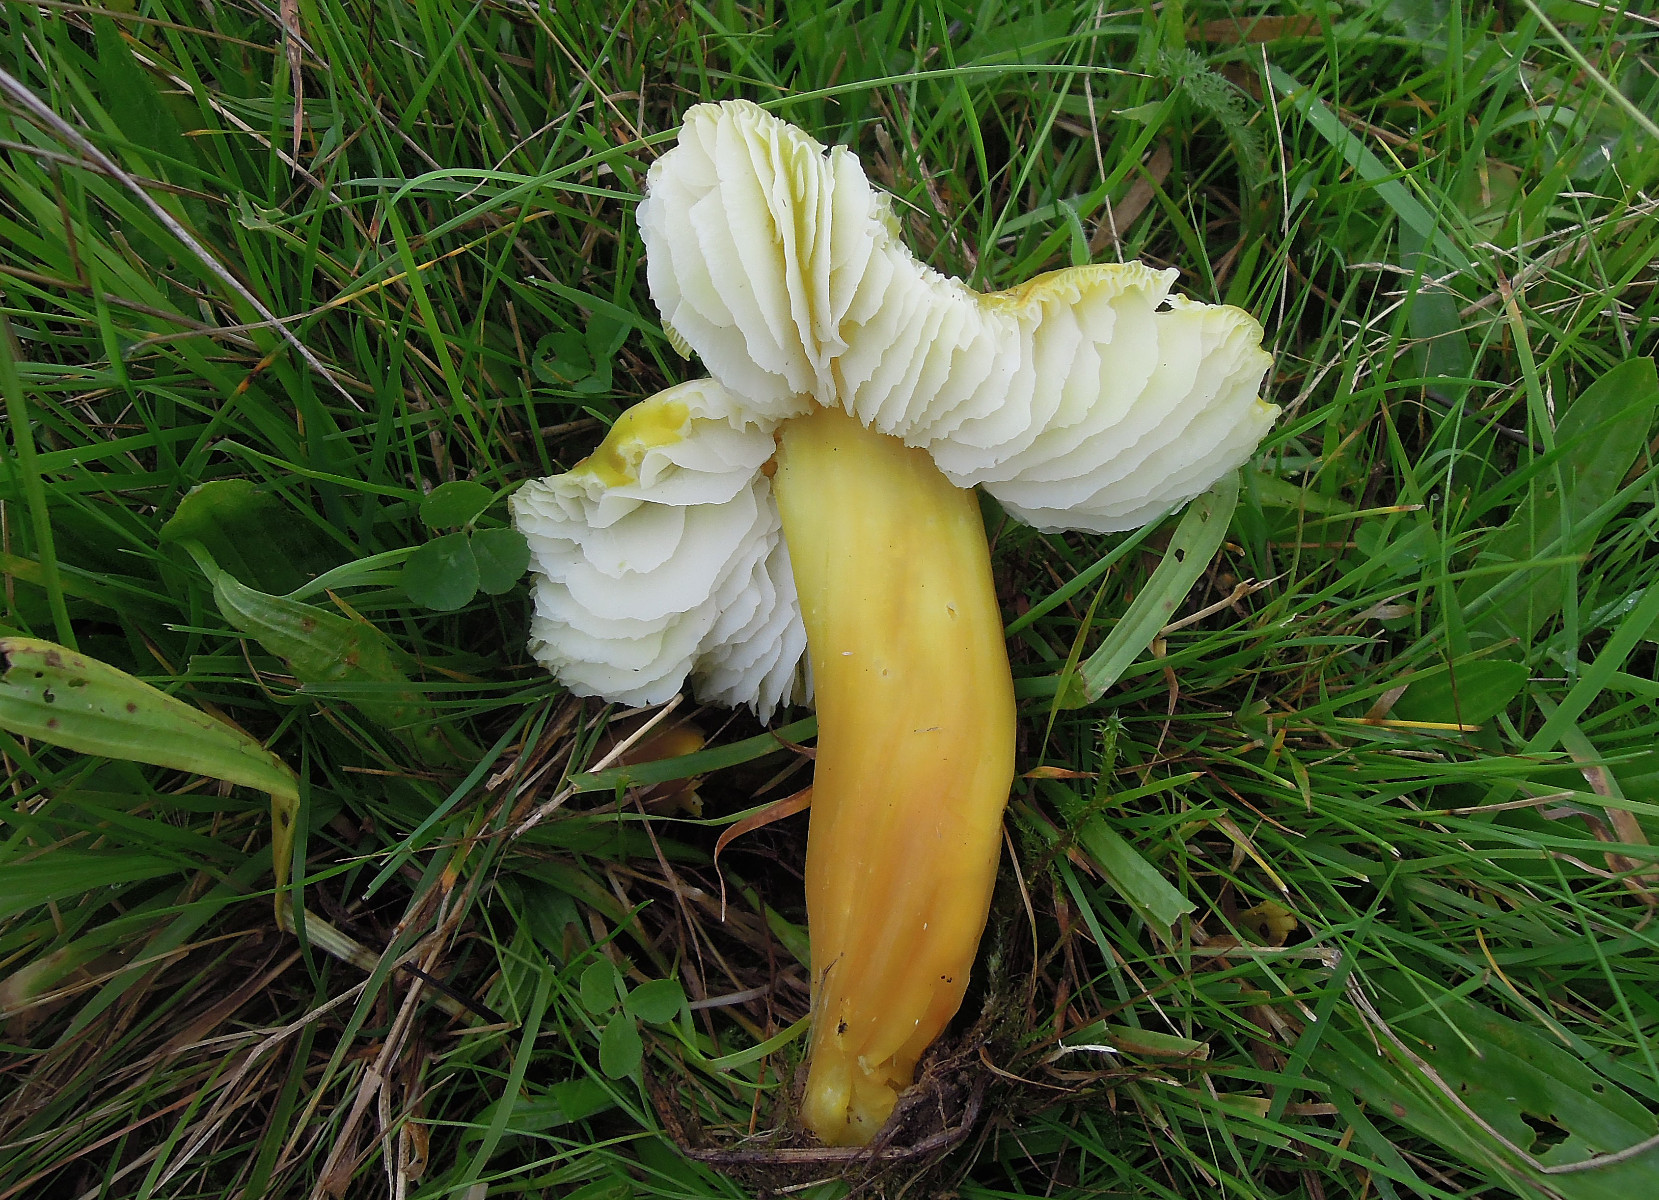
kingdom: Fungi
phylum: Basidiomycota
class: Agaricomycetes
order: Agaricales
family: Hygrophoraceae
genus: Hygrocybe
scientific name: Hygrocybe citrinovirens
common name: grøngul vokshat
